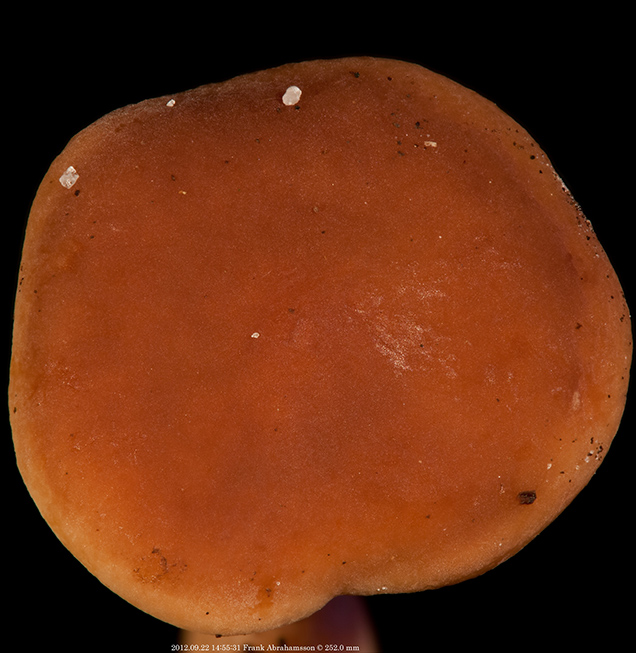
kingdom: Fungi
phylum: Basidiomycota
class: Agaricomycetes
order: Russulales
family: Russulaceae
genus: Lactarius
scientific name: Lactarius subdulcis
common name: sødlig mælkehat
